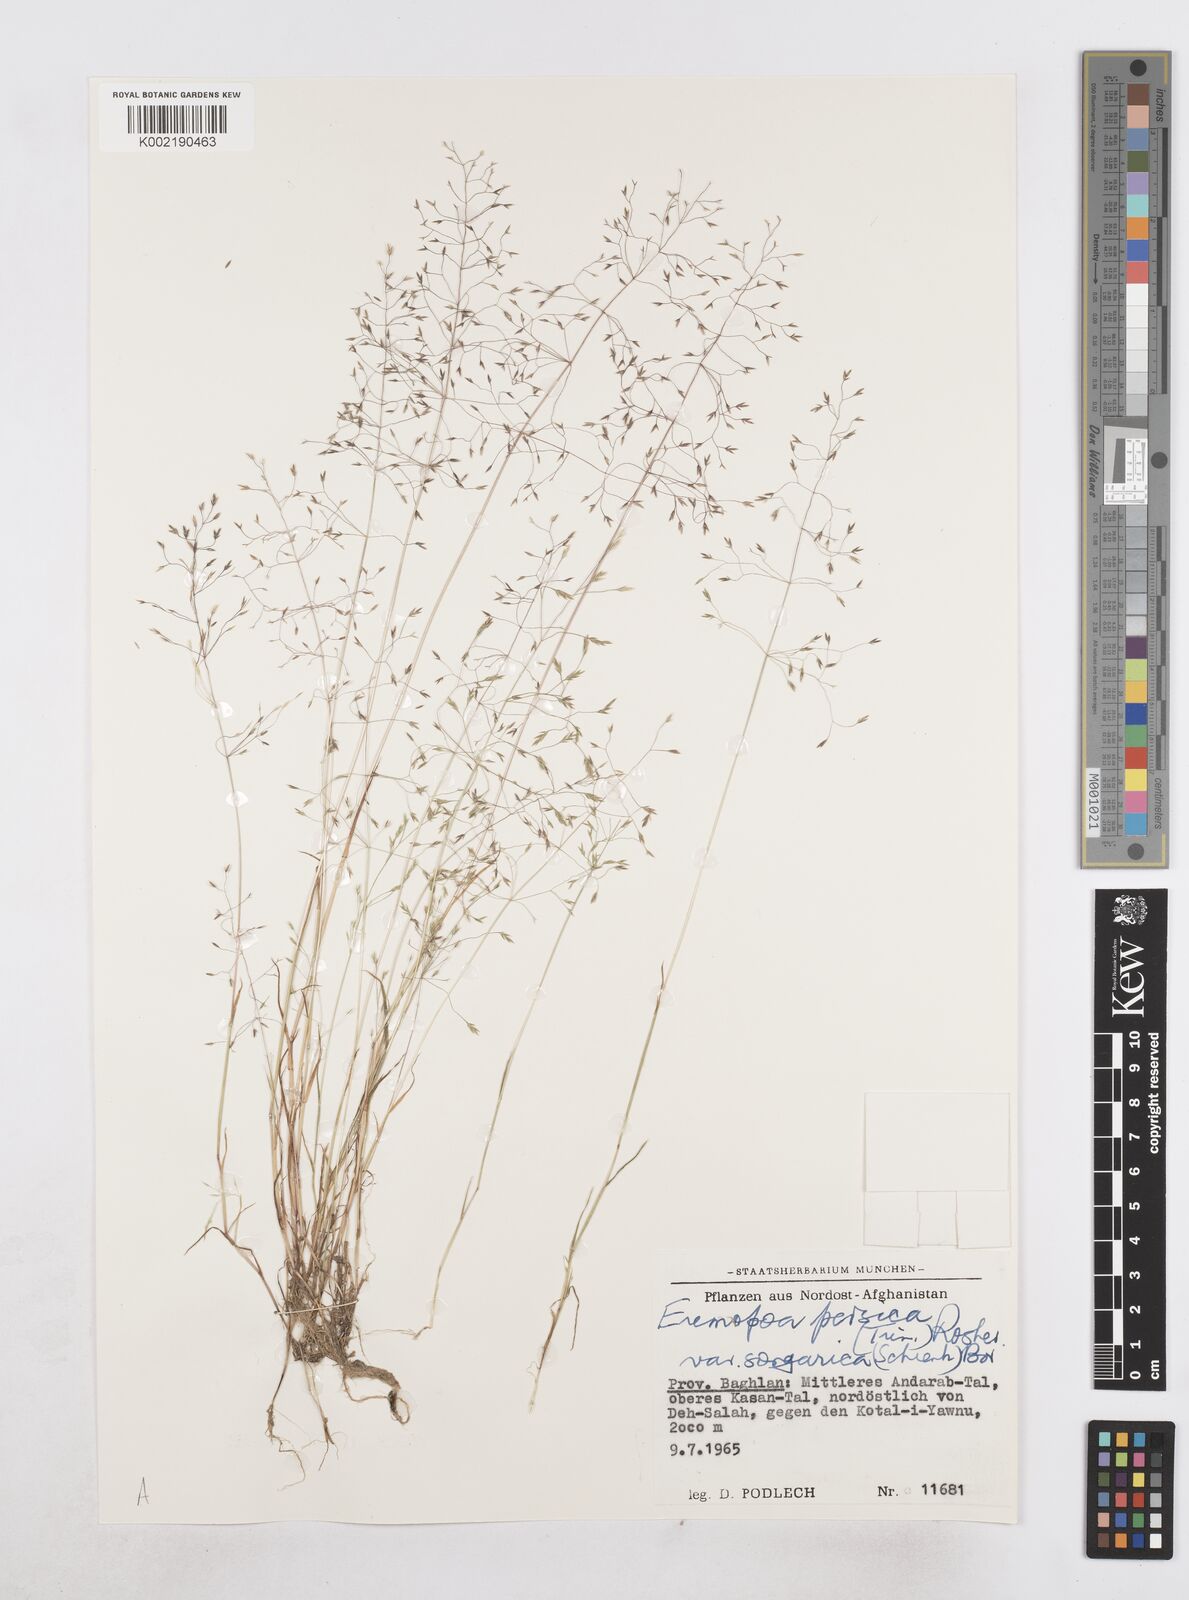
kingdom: Plantae
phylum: Tracheophyta
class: Liliopsida
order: Poales
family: Poaceae
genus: Poa
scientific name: Poa diaphora
